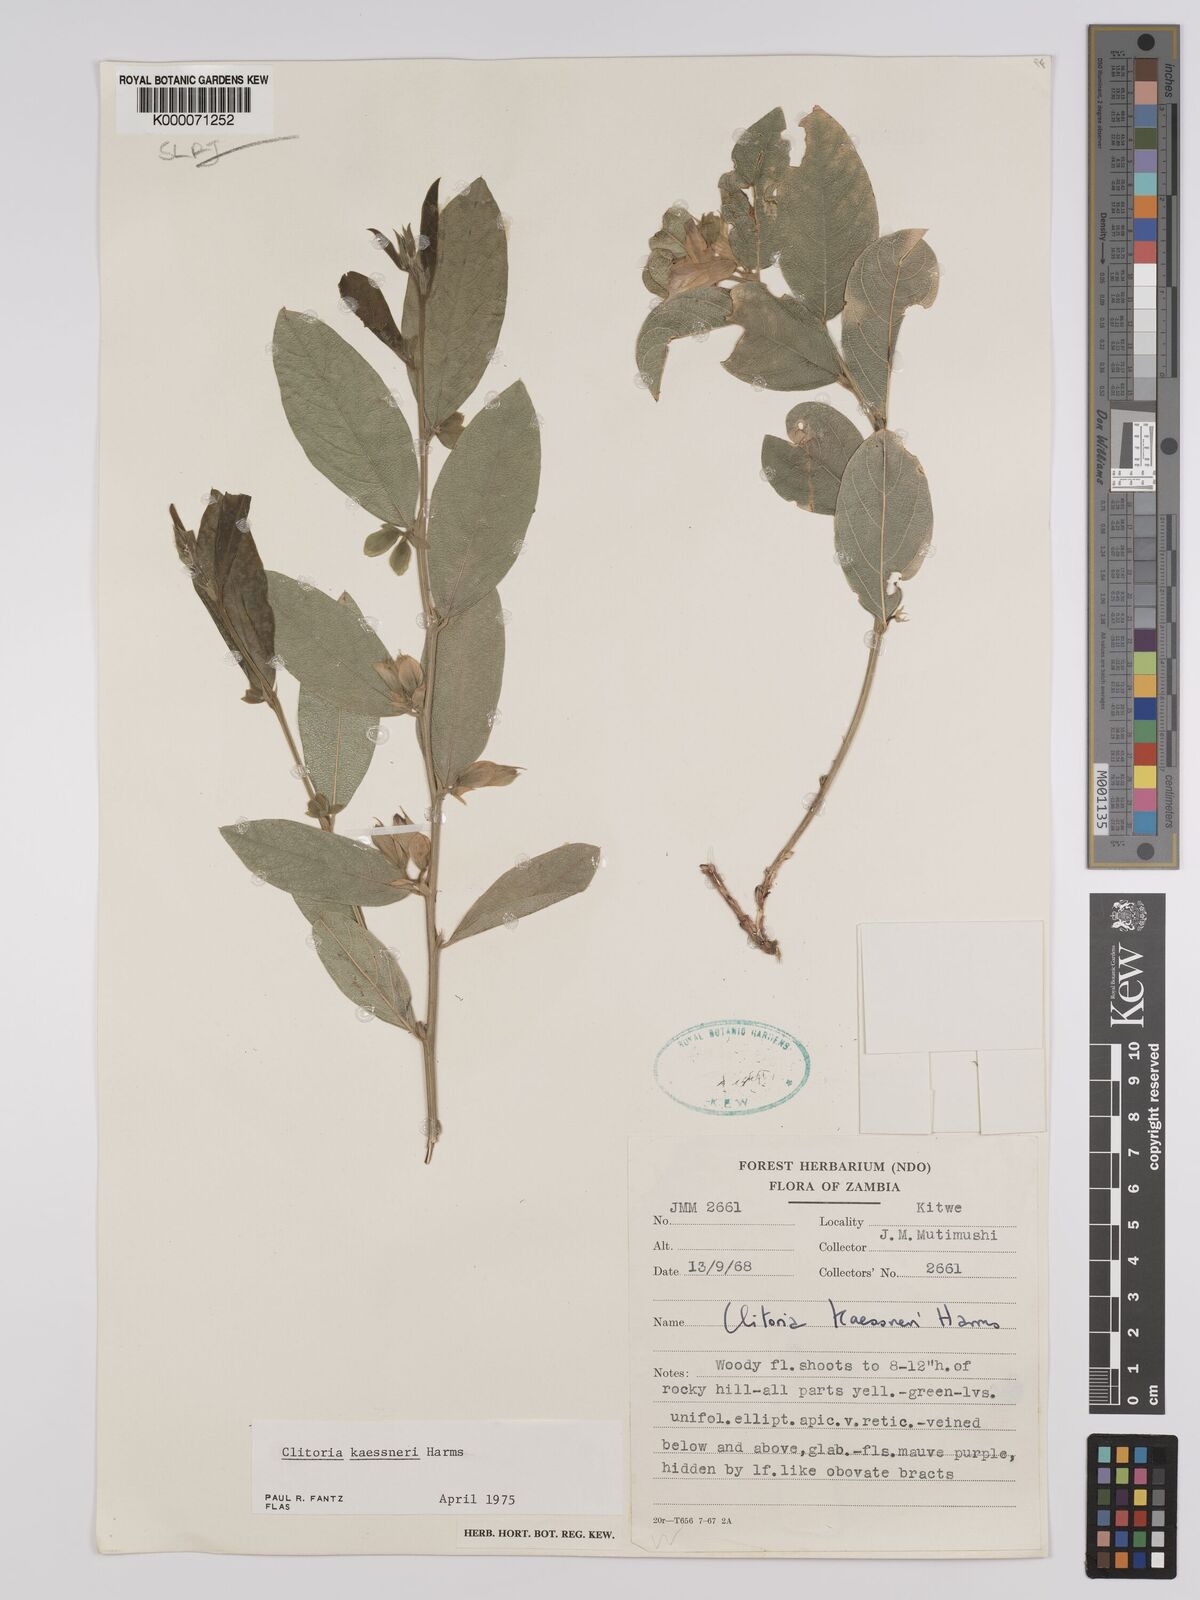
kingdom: Plantae
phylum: Tracheophyta
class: Magnoliopsida
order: Fabales
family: Fabaceae
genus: Clitoria
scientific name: Clitoria kaessneri
